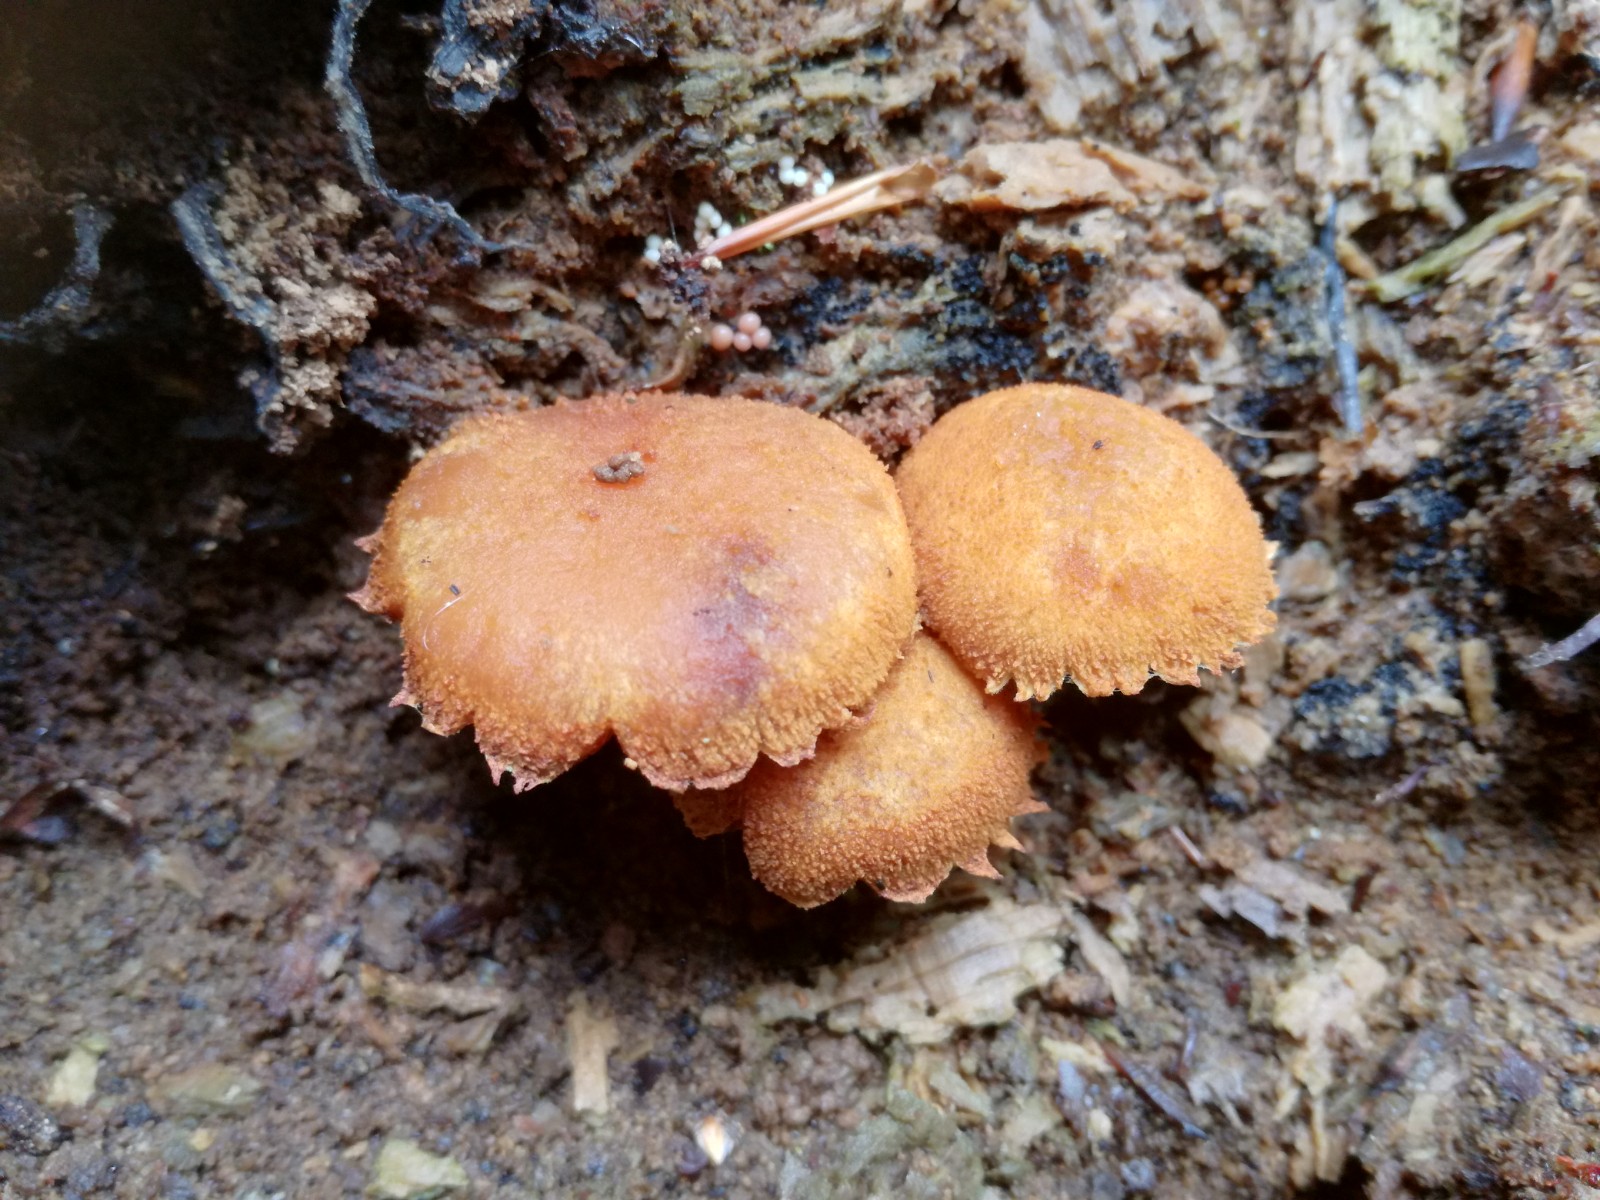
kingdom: Fungi
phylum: Basidiomycota
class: Agaricomycetes
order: Agaricales
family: Tubariaceae
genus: Flammulaster
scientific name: Flammulaster muricatus
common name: pigget grynskælhat
